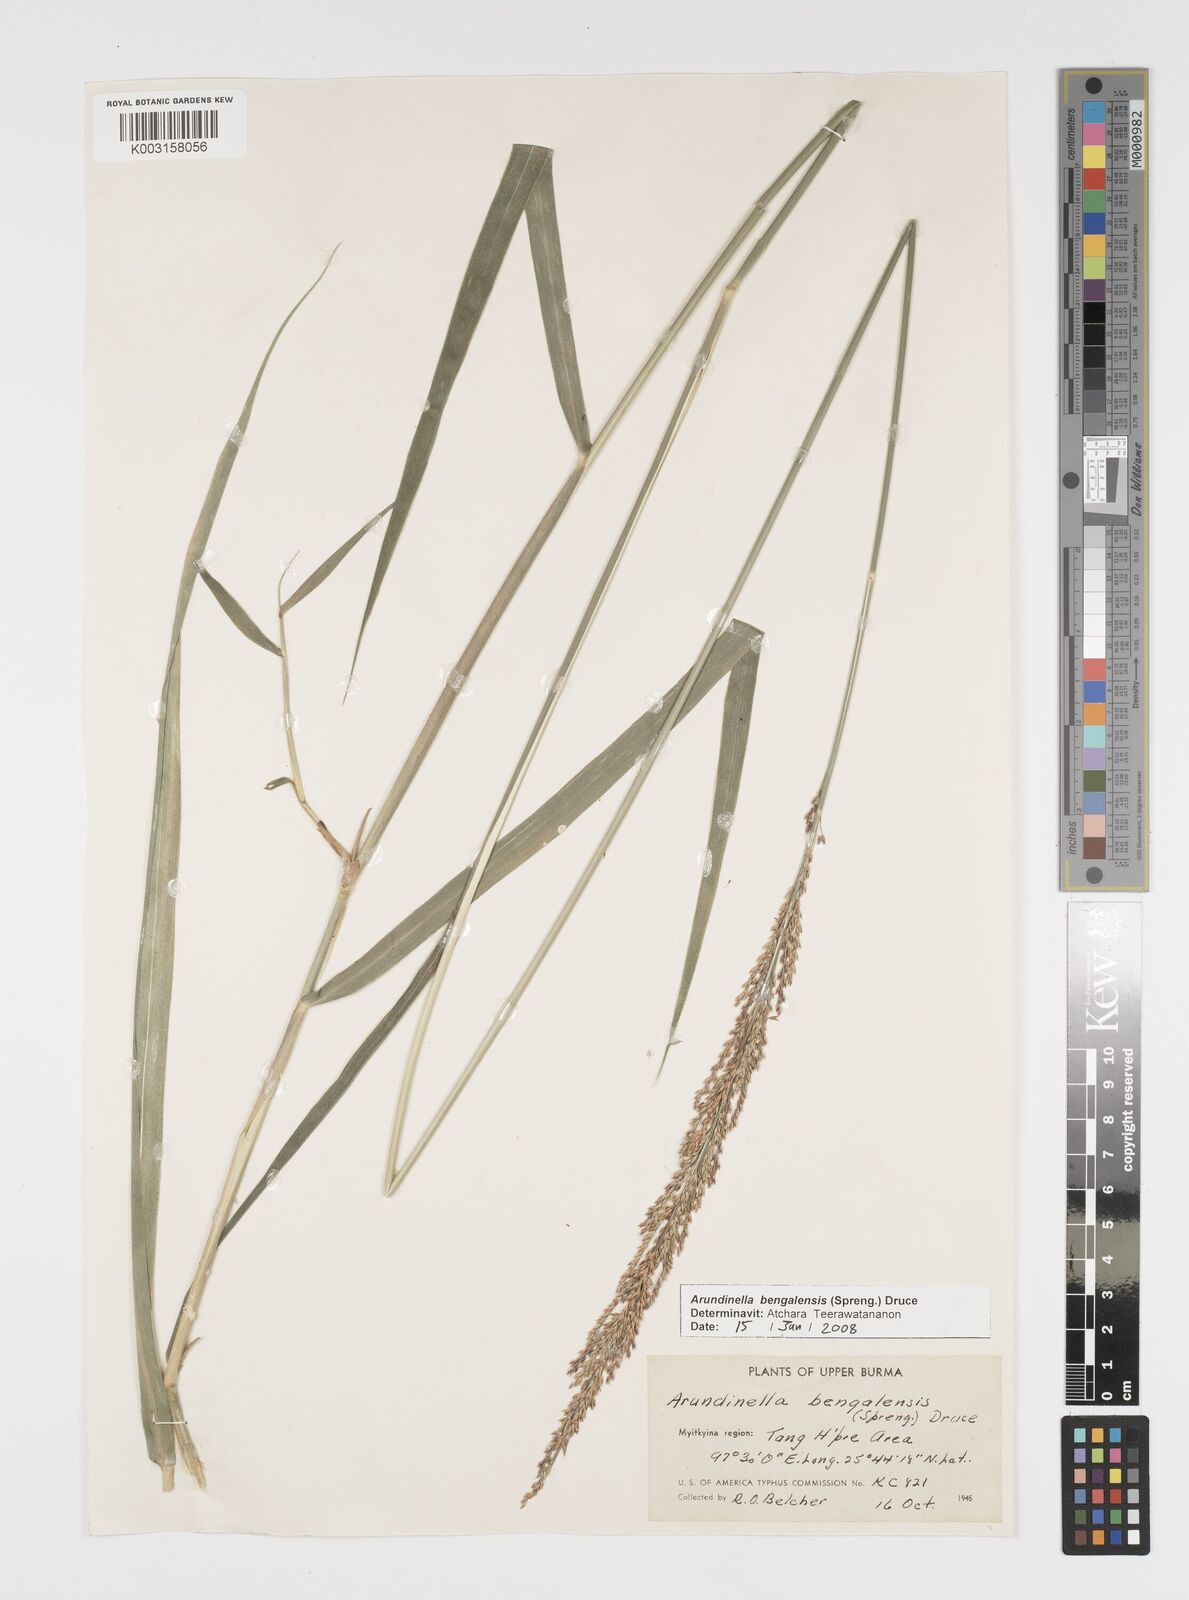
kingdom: Plantae
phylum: Tracheophyta
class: Liliopsida
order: Poales
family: Poaceae
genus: Arundinella
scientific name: Arundinella bengalensis
